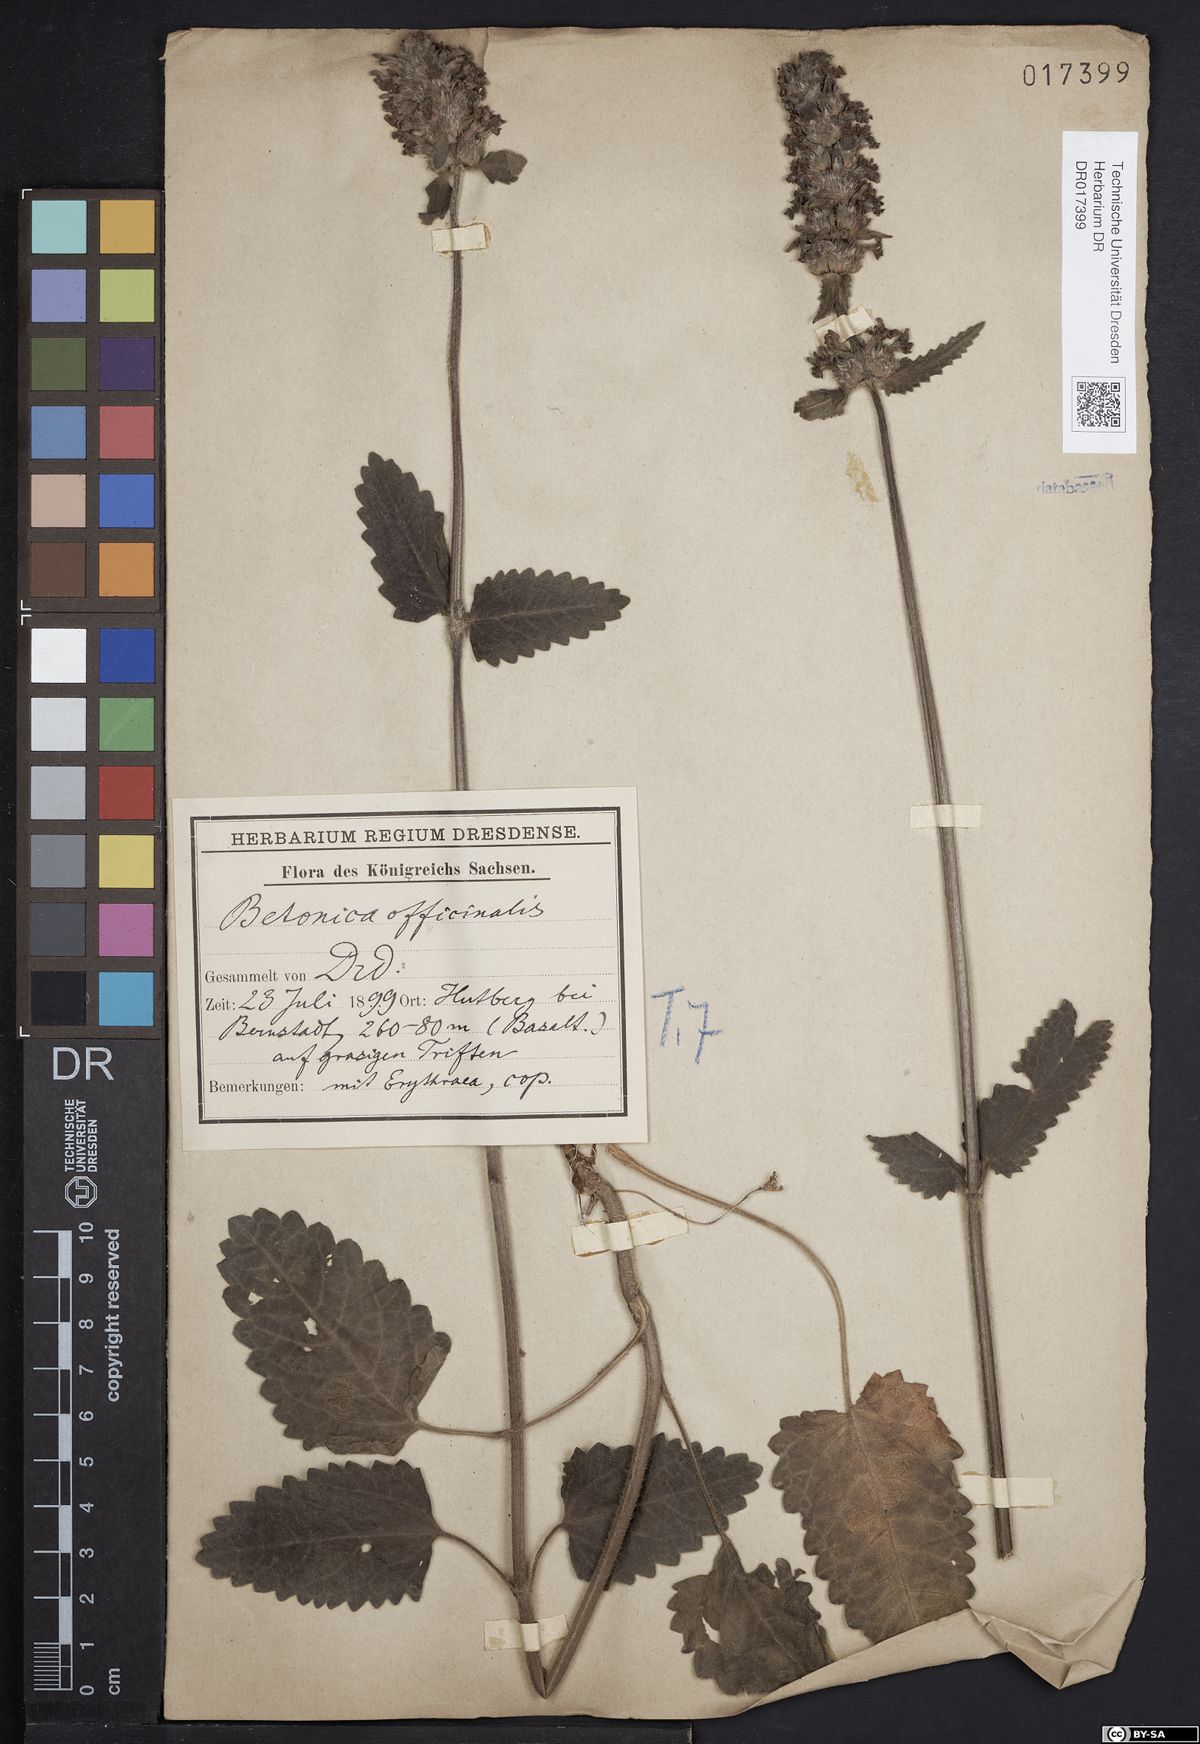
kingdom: Plantae
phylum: Tracheophyta
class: Magnoliopsida
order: Lamiales
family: Lamiaceae
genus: Betonica
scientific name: Betonica officinalis
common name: Bishop's-wort
